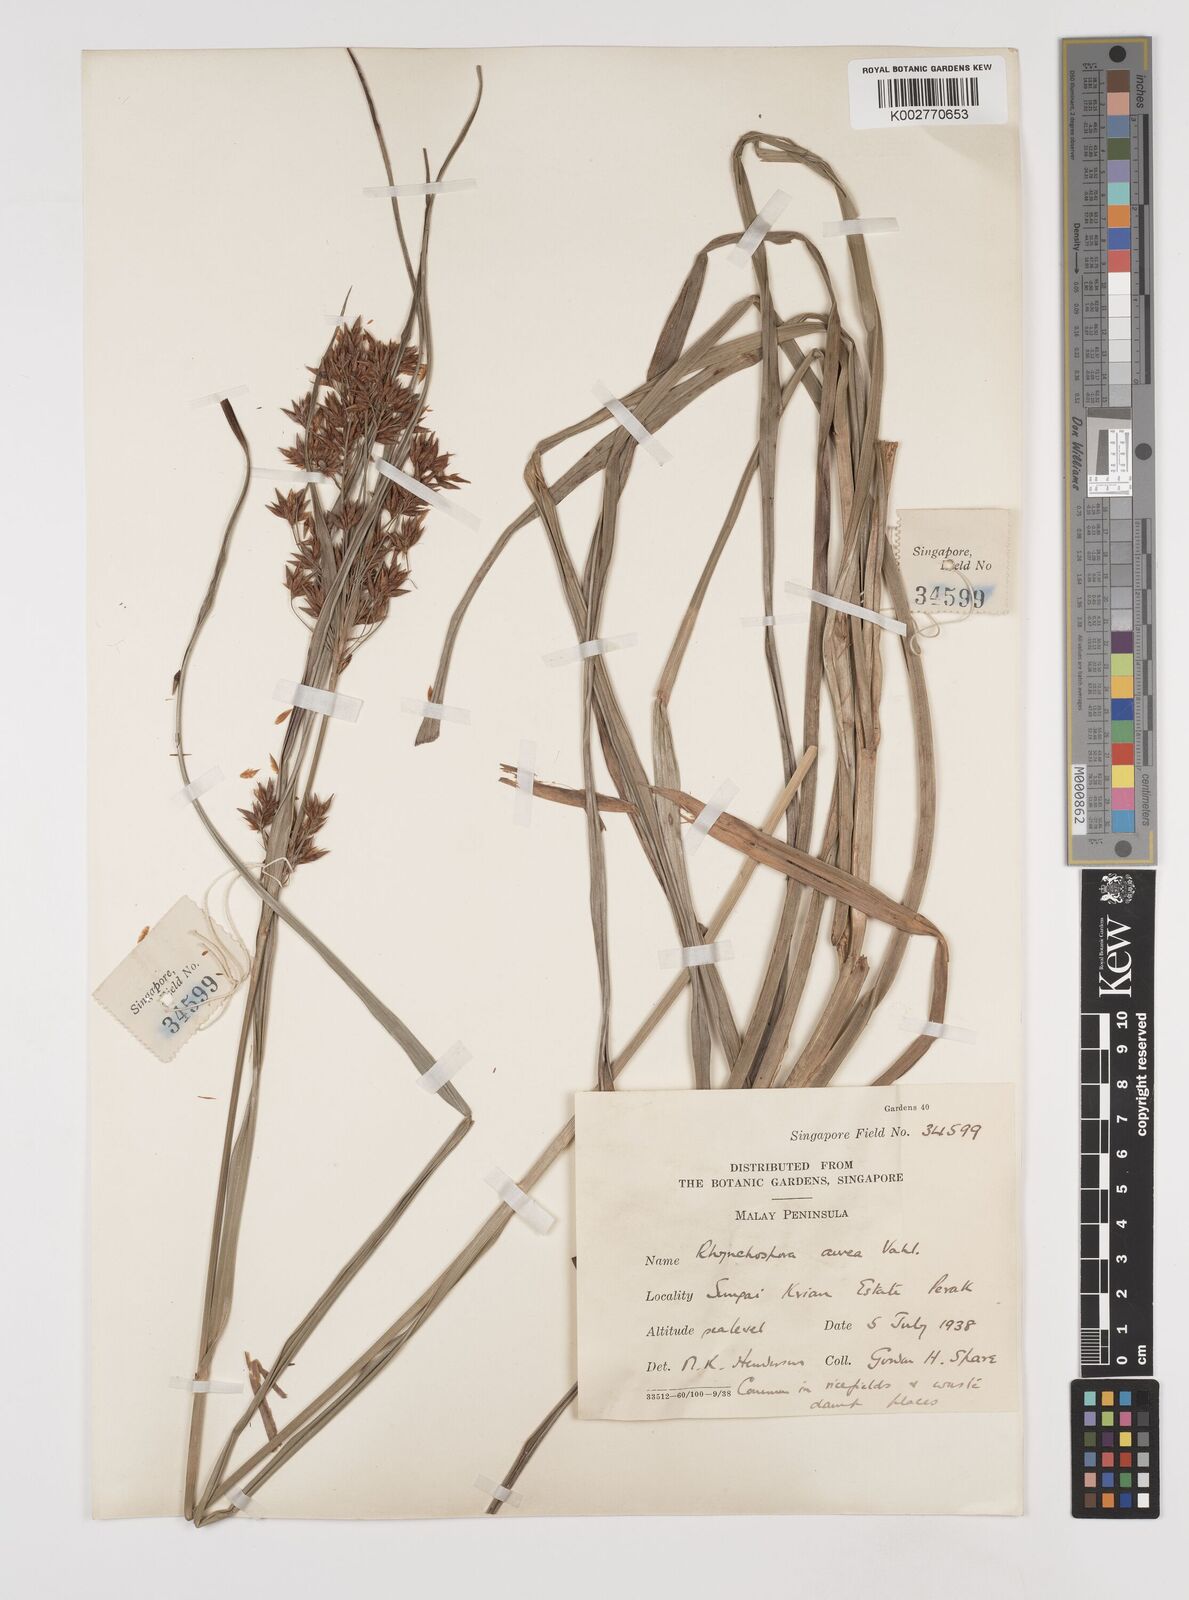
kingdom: Plantae
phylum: Tracheophyta
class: Liliopsida
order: Poales
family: Cyperaceae
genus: Rhynchospora
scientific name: Rhynchospora corymbosa
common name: Golden beak sedge
